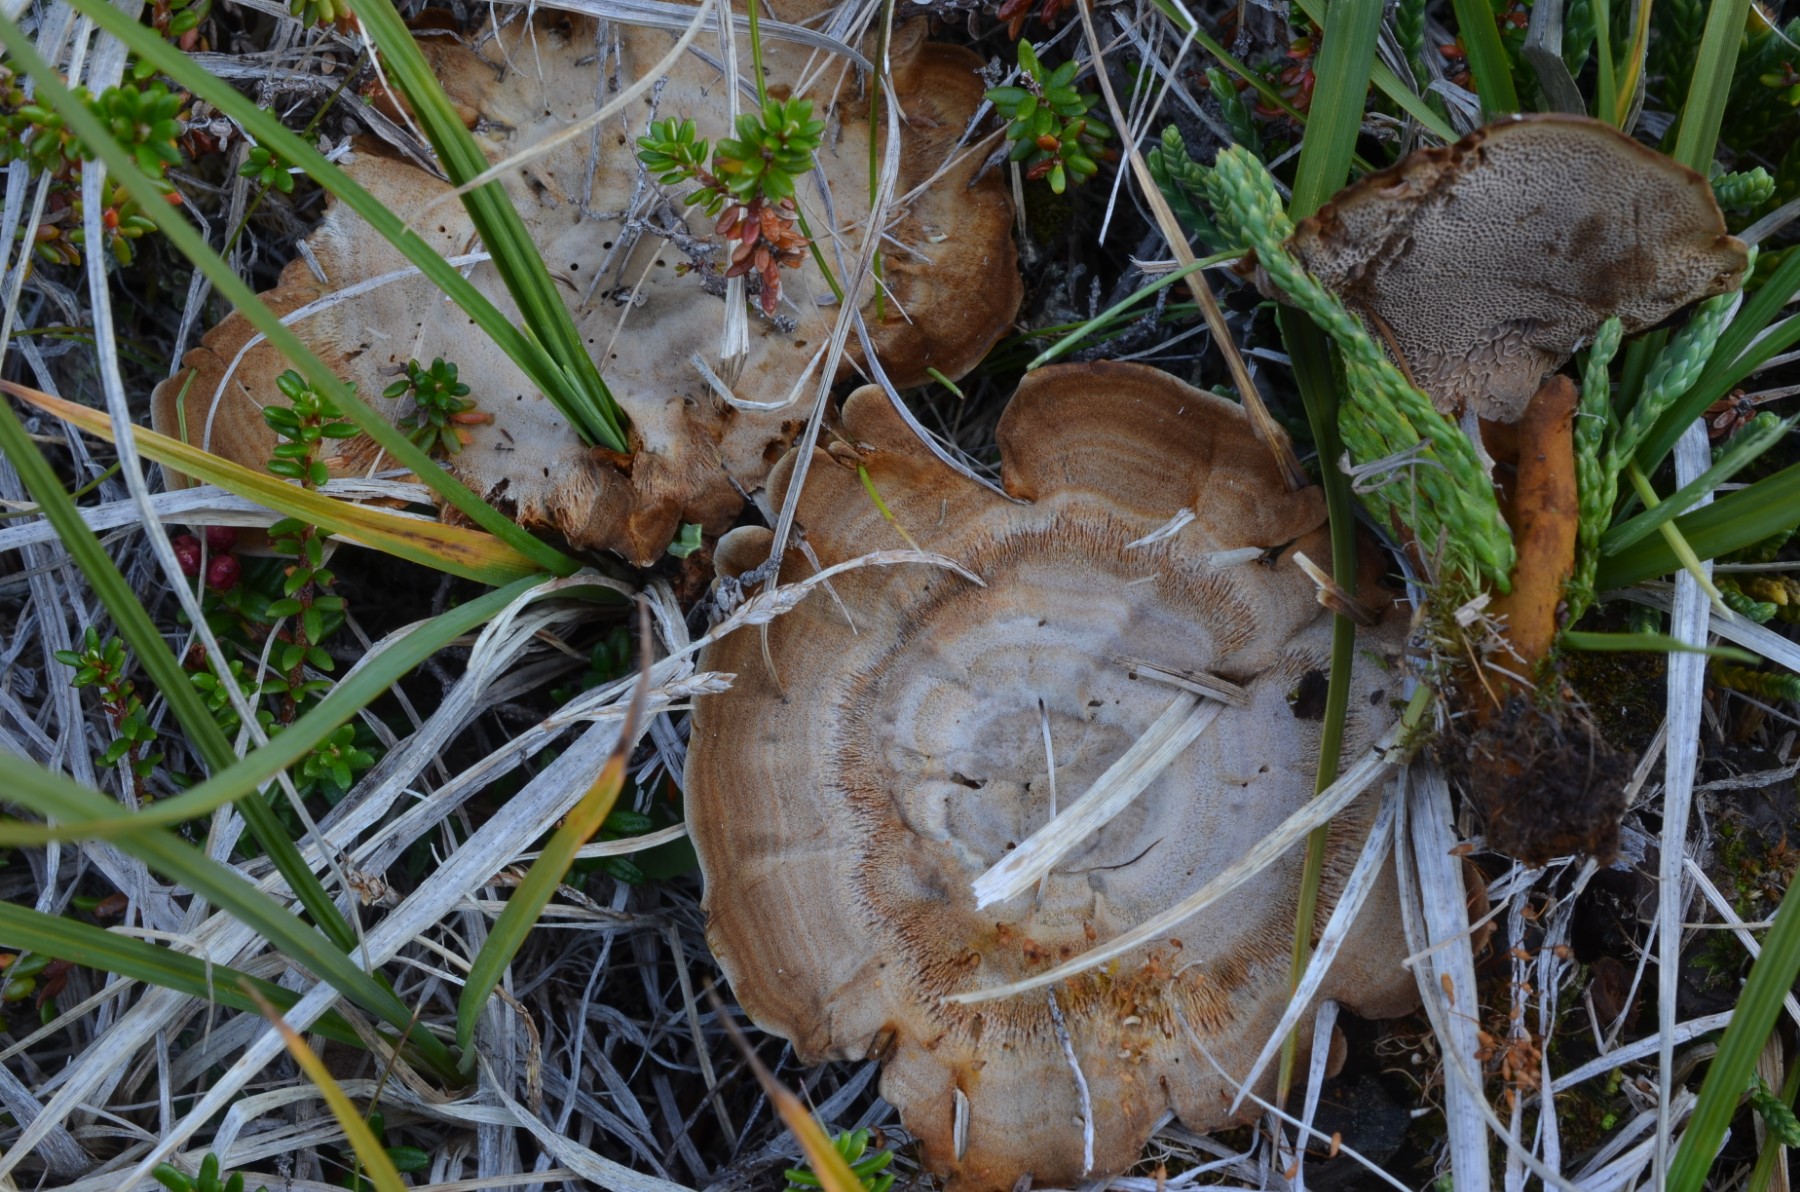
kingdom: Fungi
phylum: Basidiomycota
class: Agaricomycetes
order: Hymenochaetales
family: Hymenochaetaceae
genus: Coltricia
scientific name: Coltricia perennis
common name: almindelig sandporesvamp
